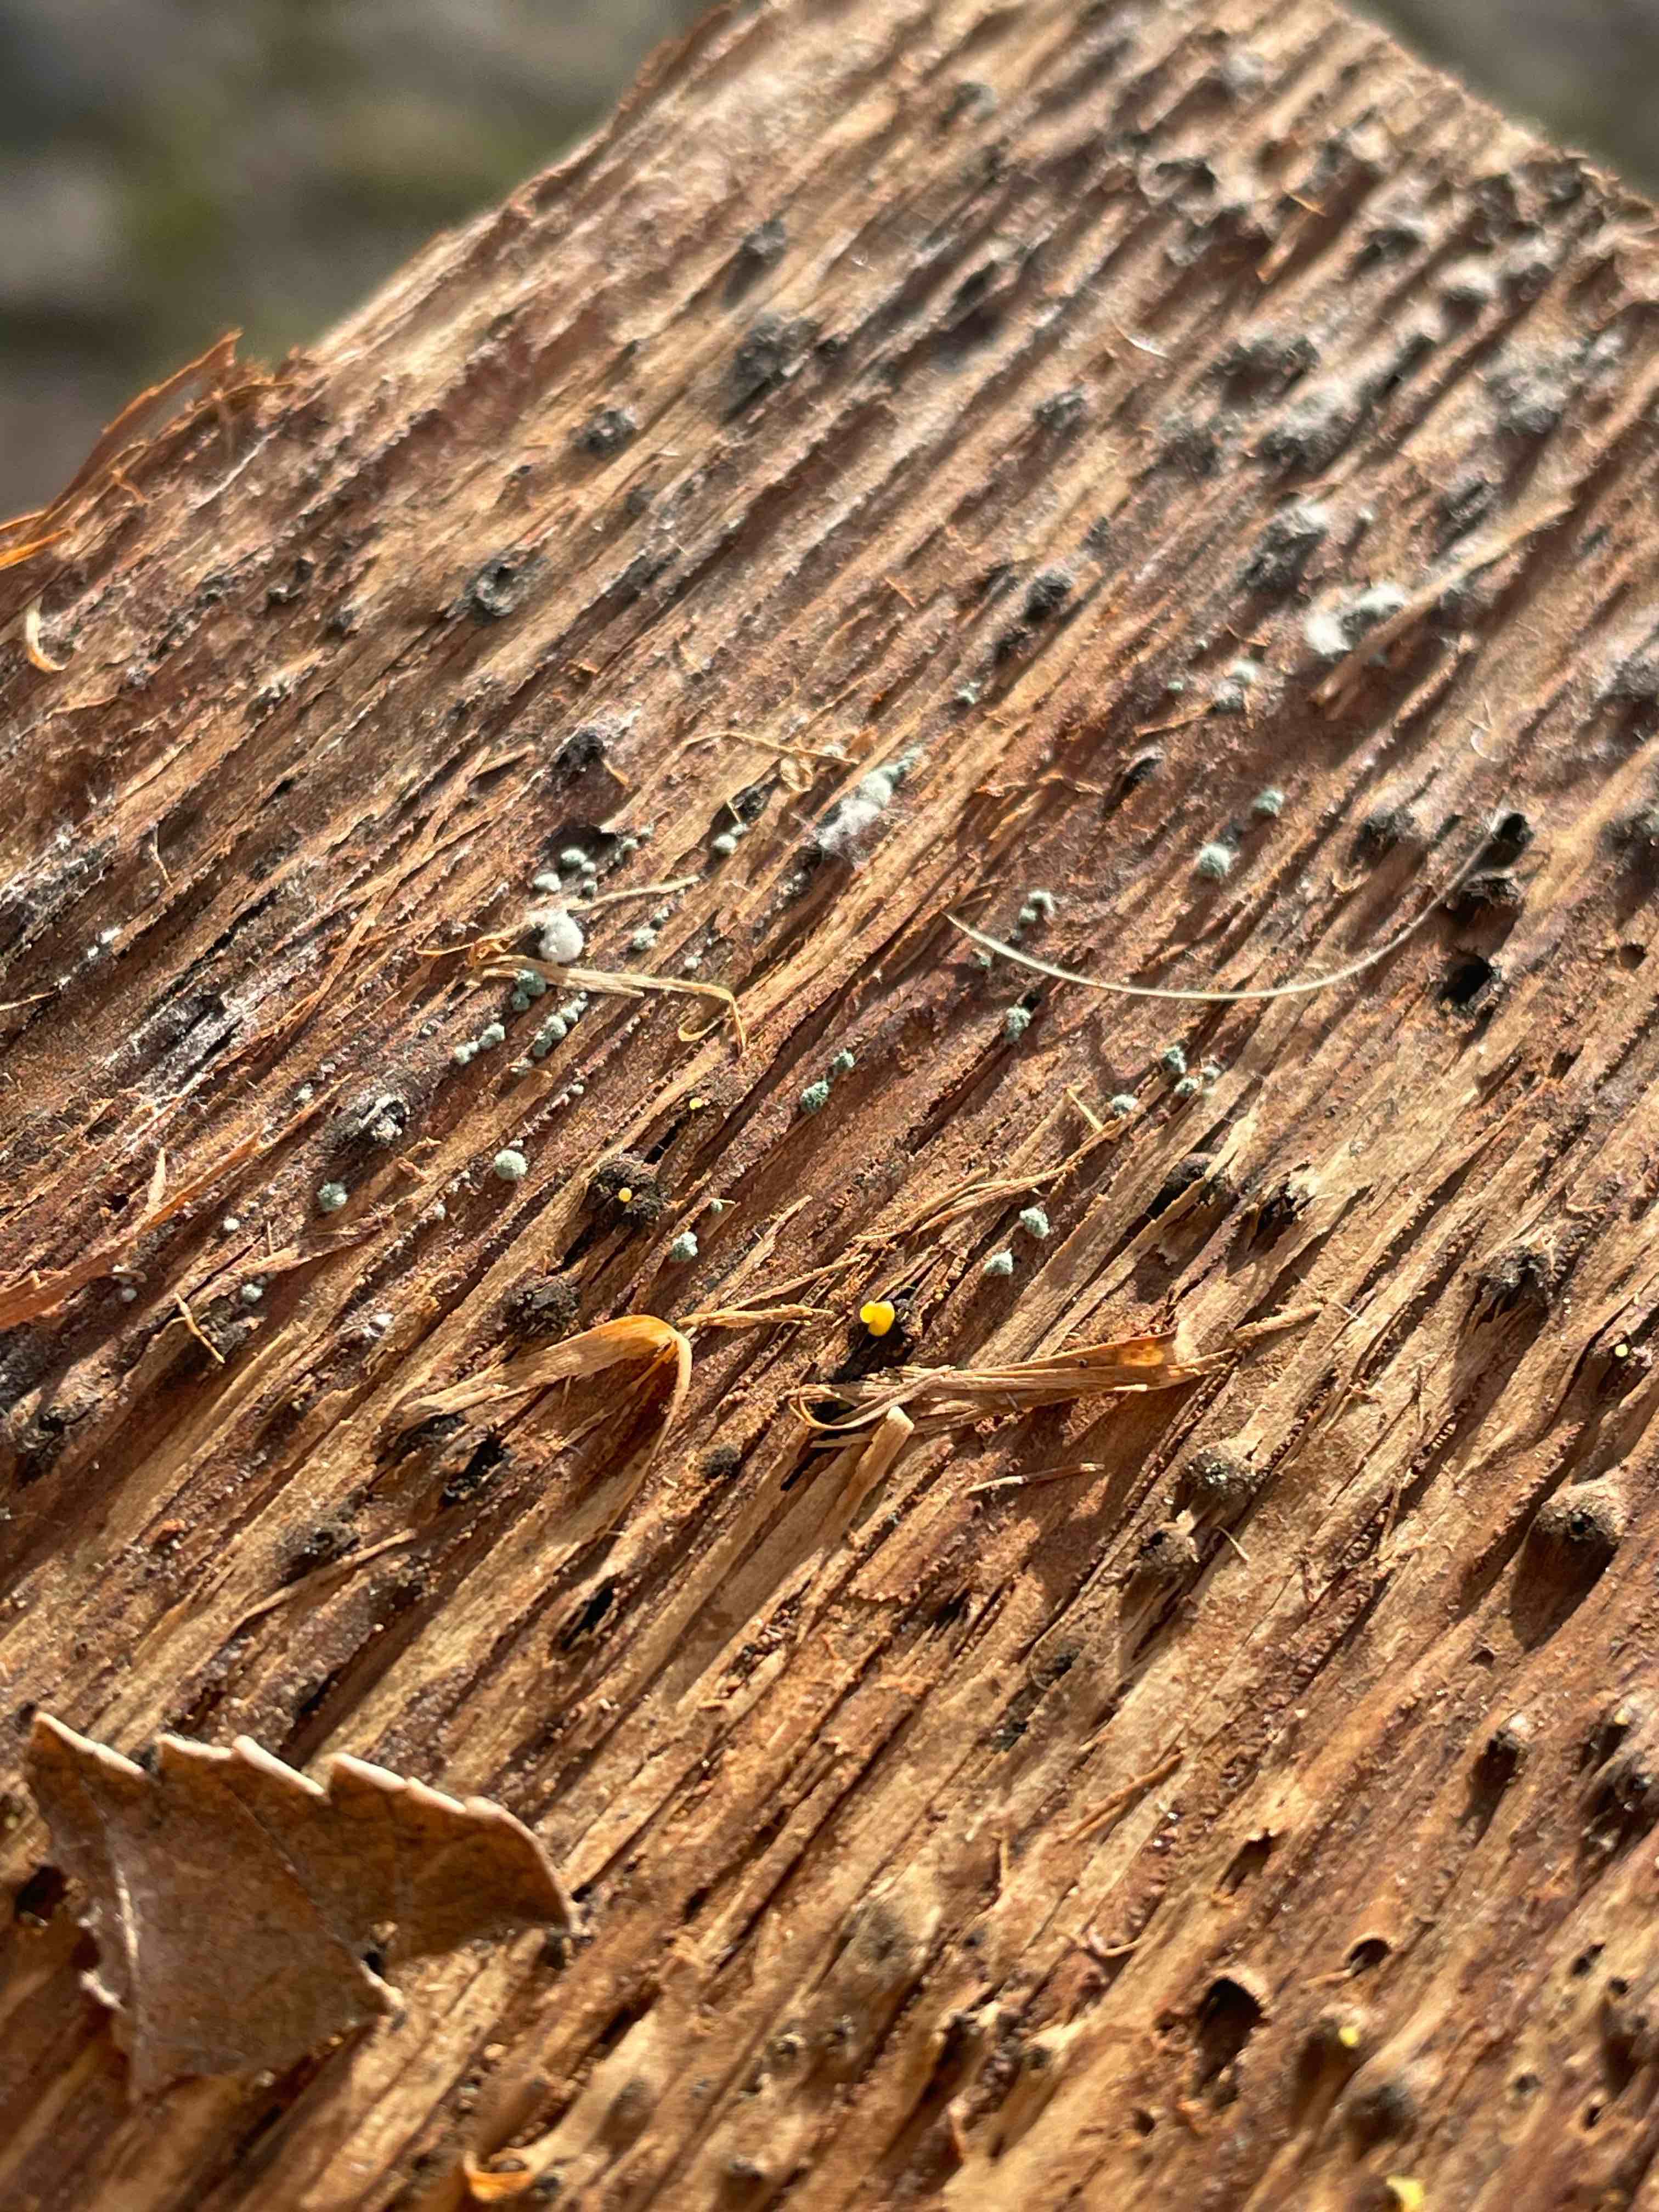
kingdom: Fungi
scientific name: Fungi
